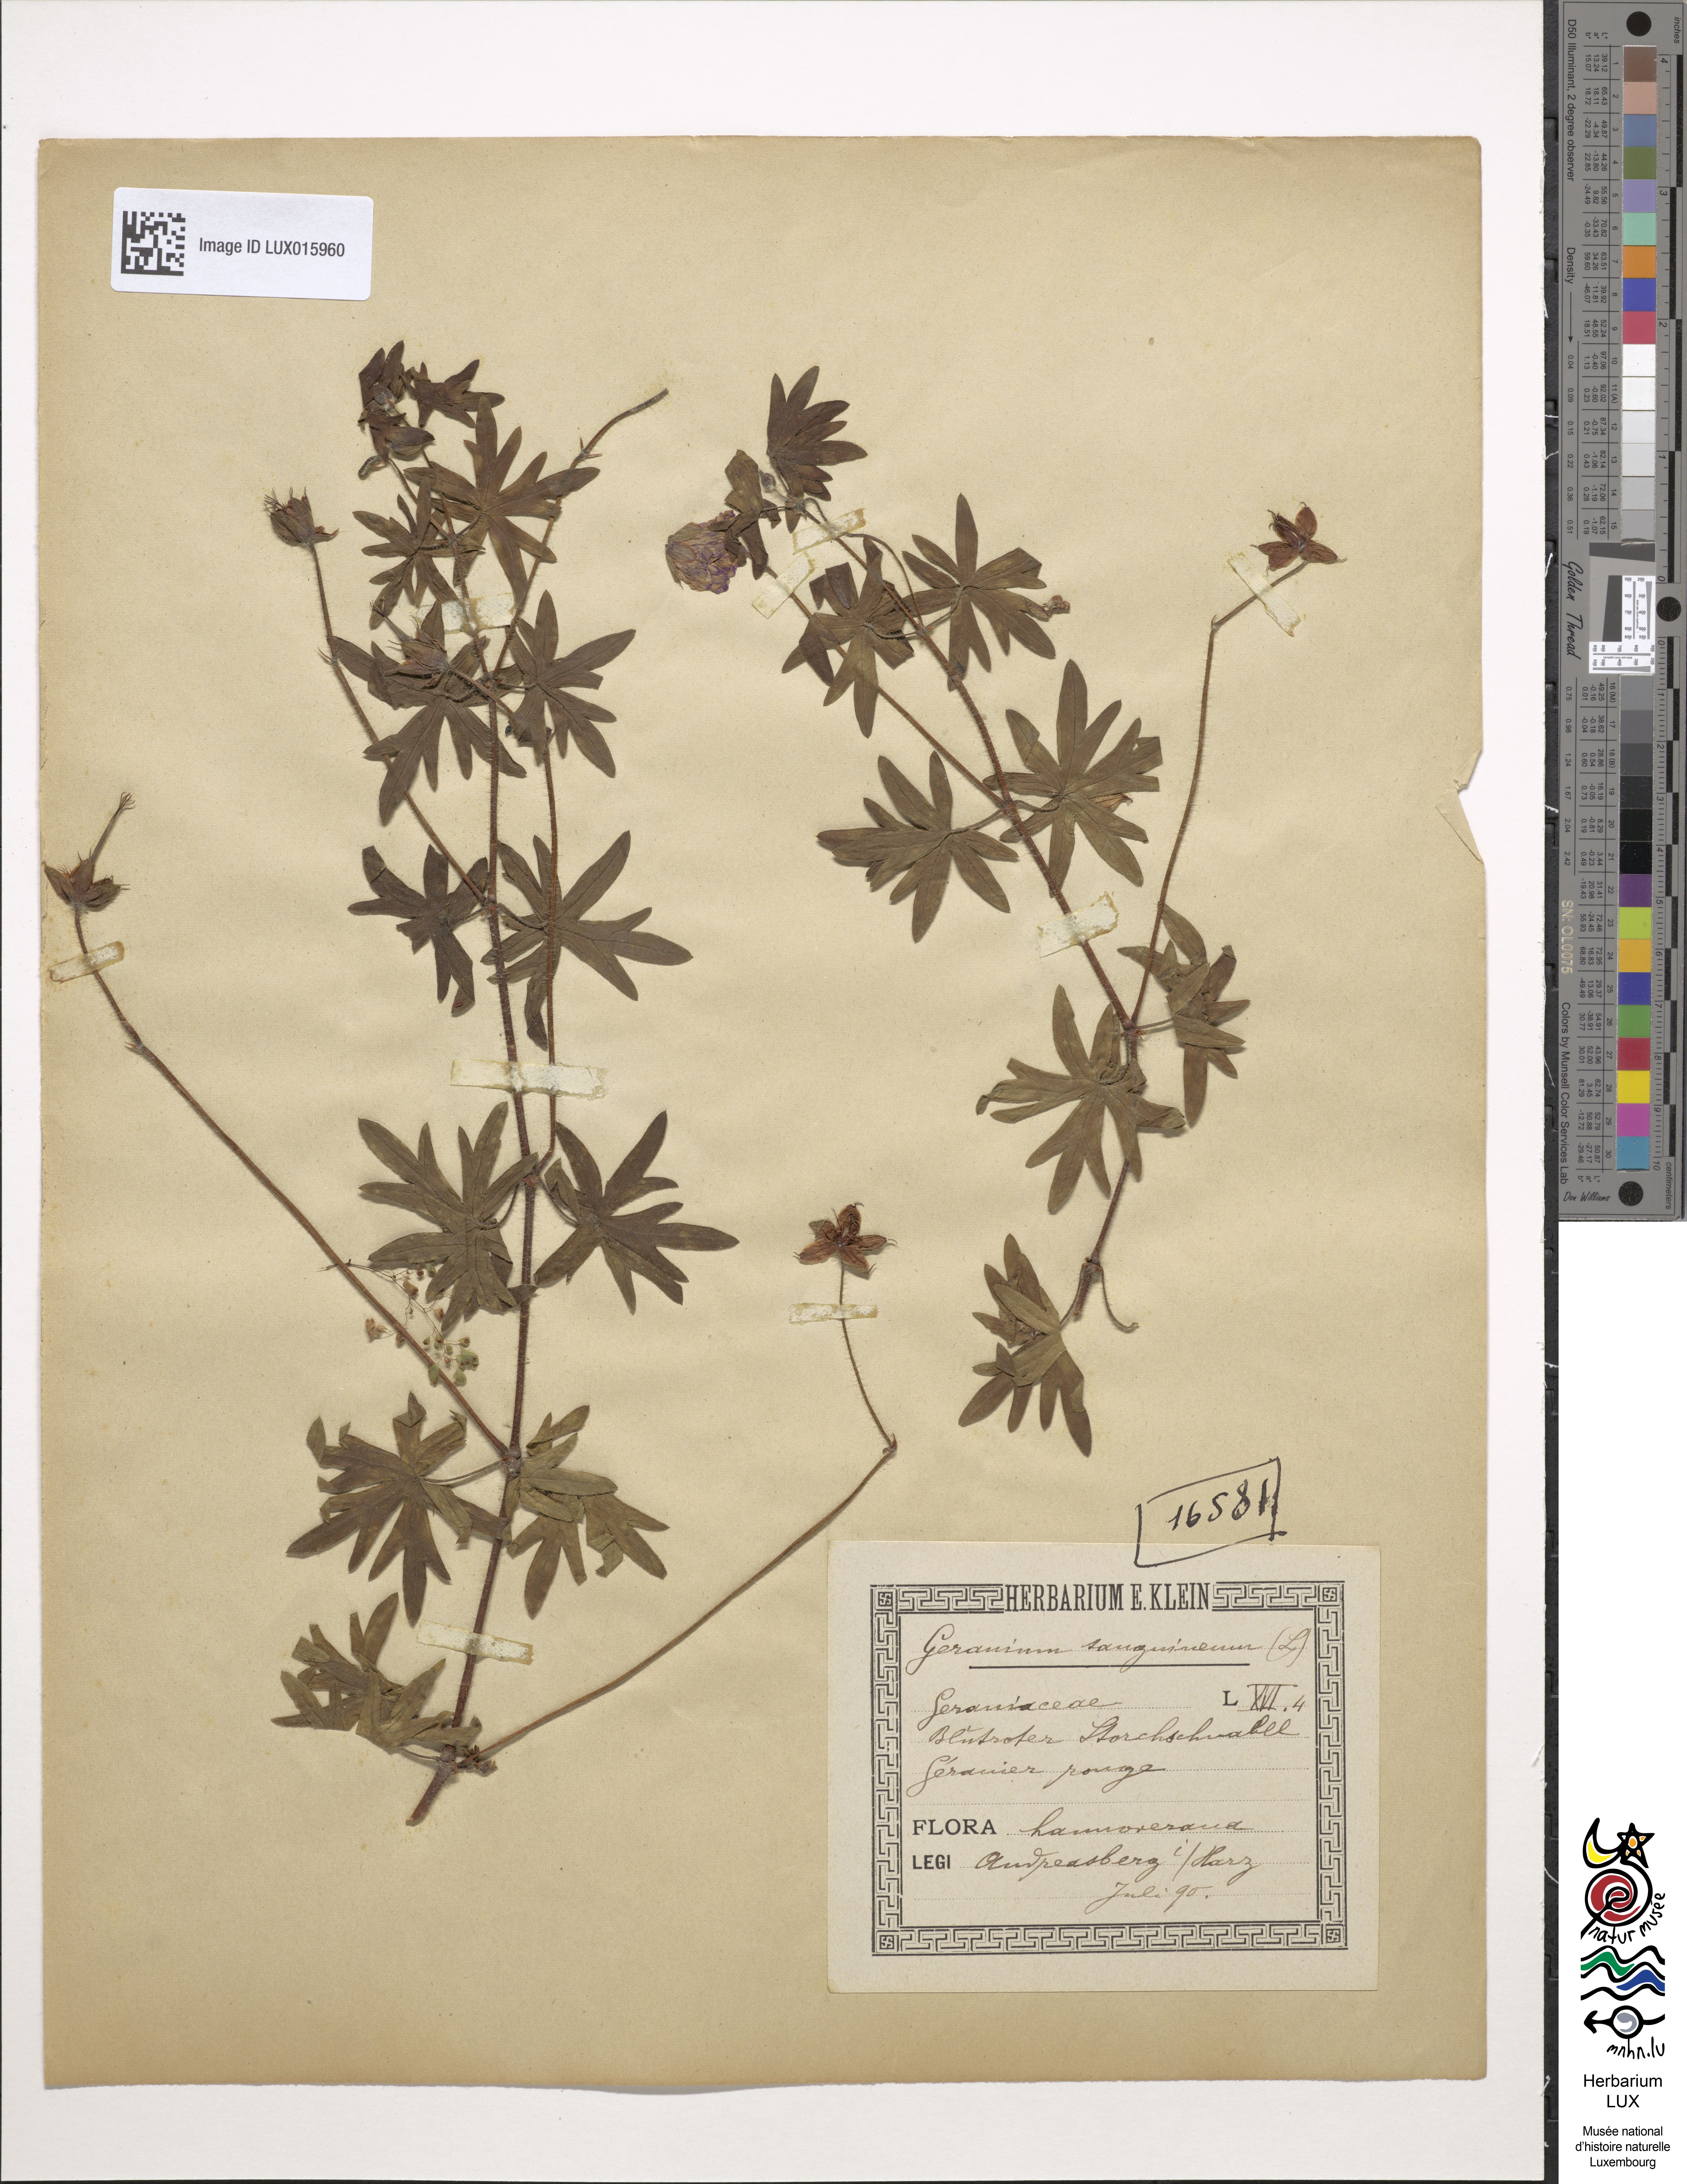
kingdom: Plantae
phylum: Tracheophyta
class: Magnoliopsida
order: Geraniales
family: Geraniaceae
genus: Geranium
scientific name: Geranium sanguineum
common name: Bloody crane's-bill
